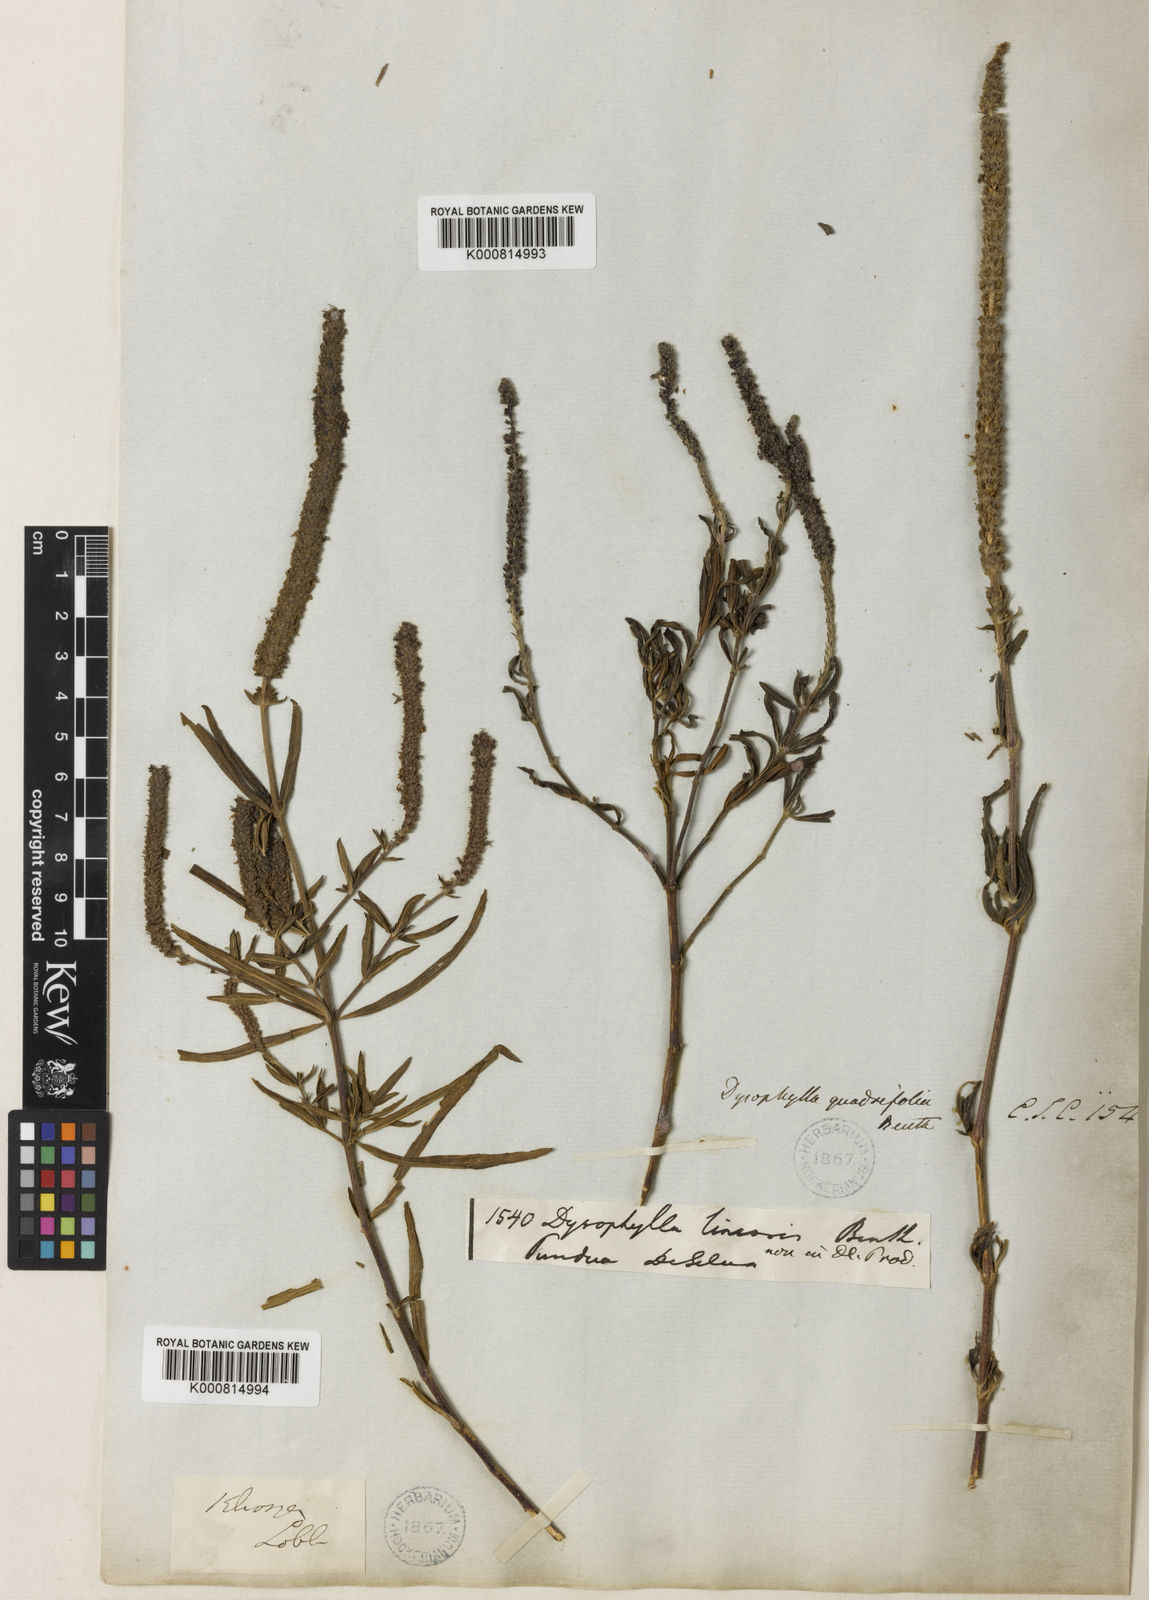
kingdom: Plantae
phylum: Tracheophyta
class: Magnoliopsida
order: Lamiales
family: Lamiaceae
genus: Pogostemon
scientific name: Pogostemon quadrifolius
